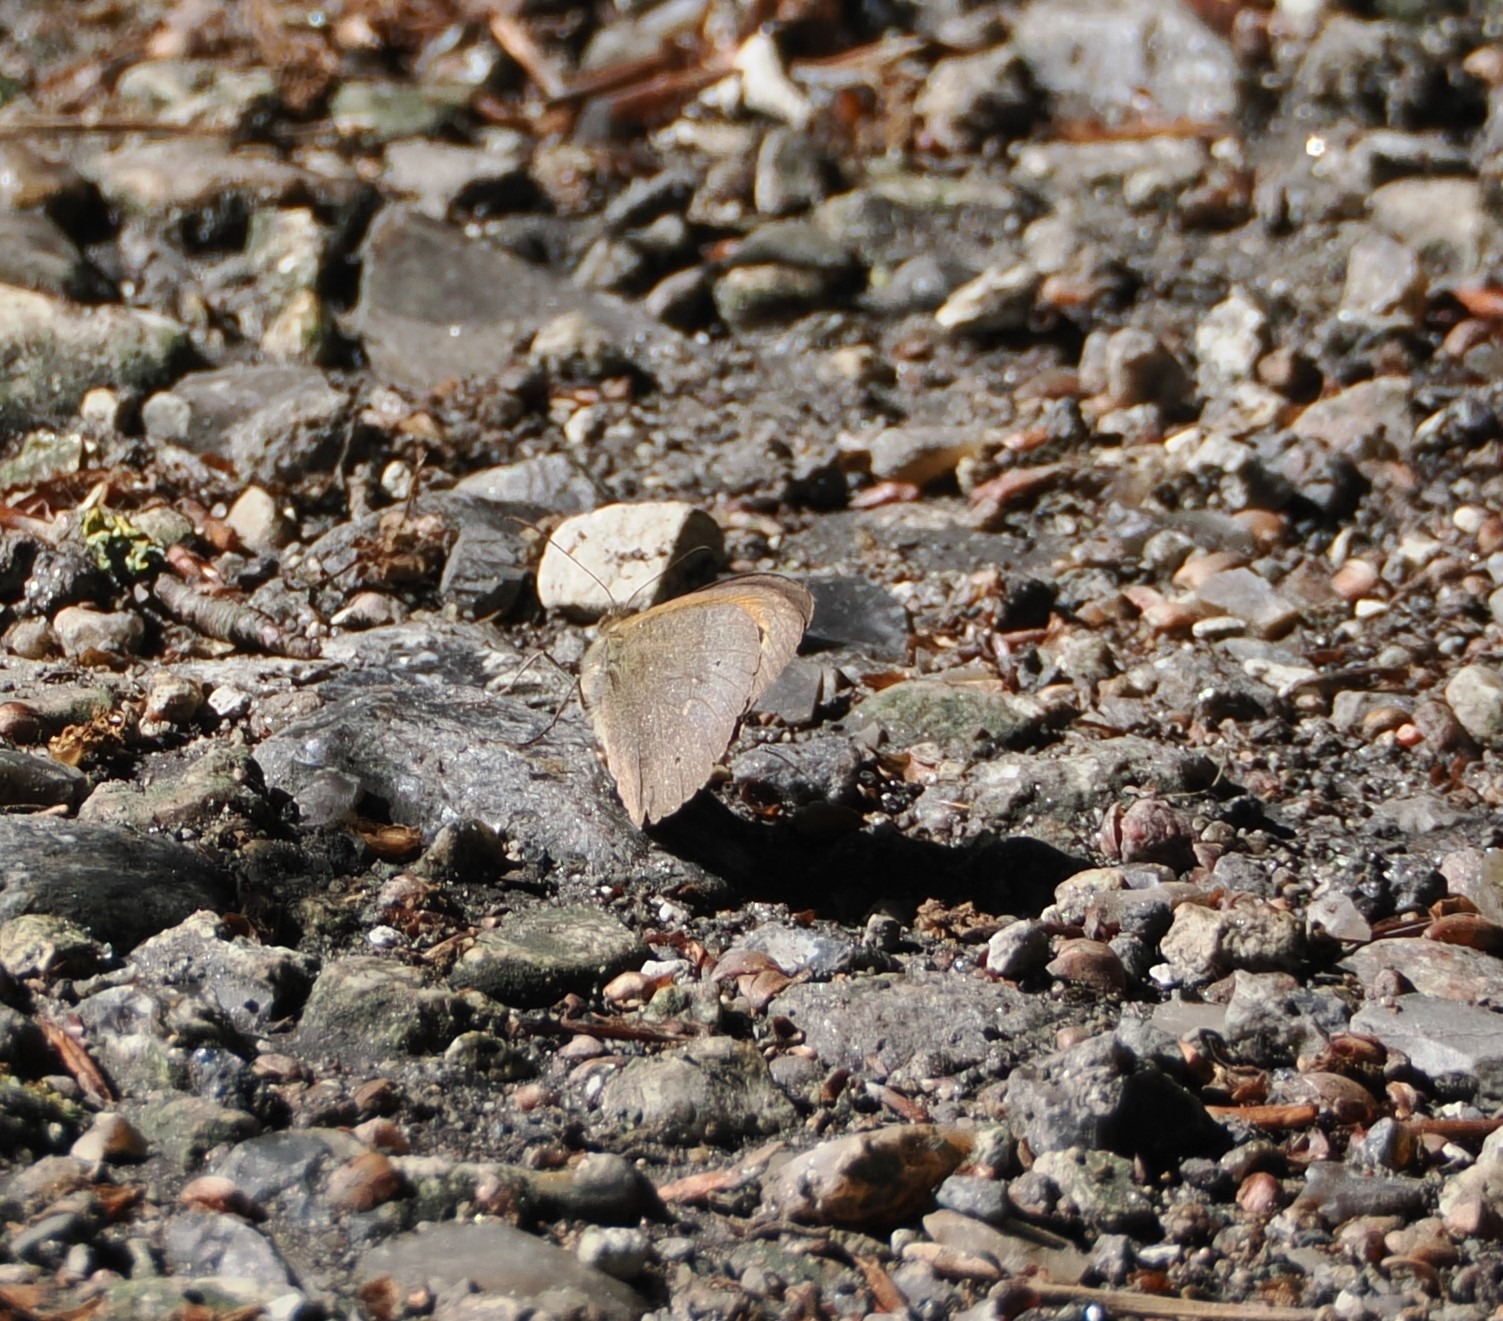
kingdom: Animalia
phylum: Arthropoda
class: Insecta
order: Lepidoptera
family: Nymphalidae
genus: Maniola
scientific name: Maniola jurtina
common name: Græsrandøje
